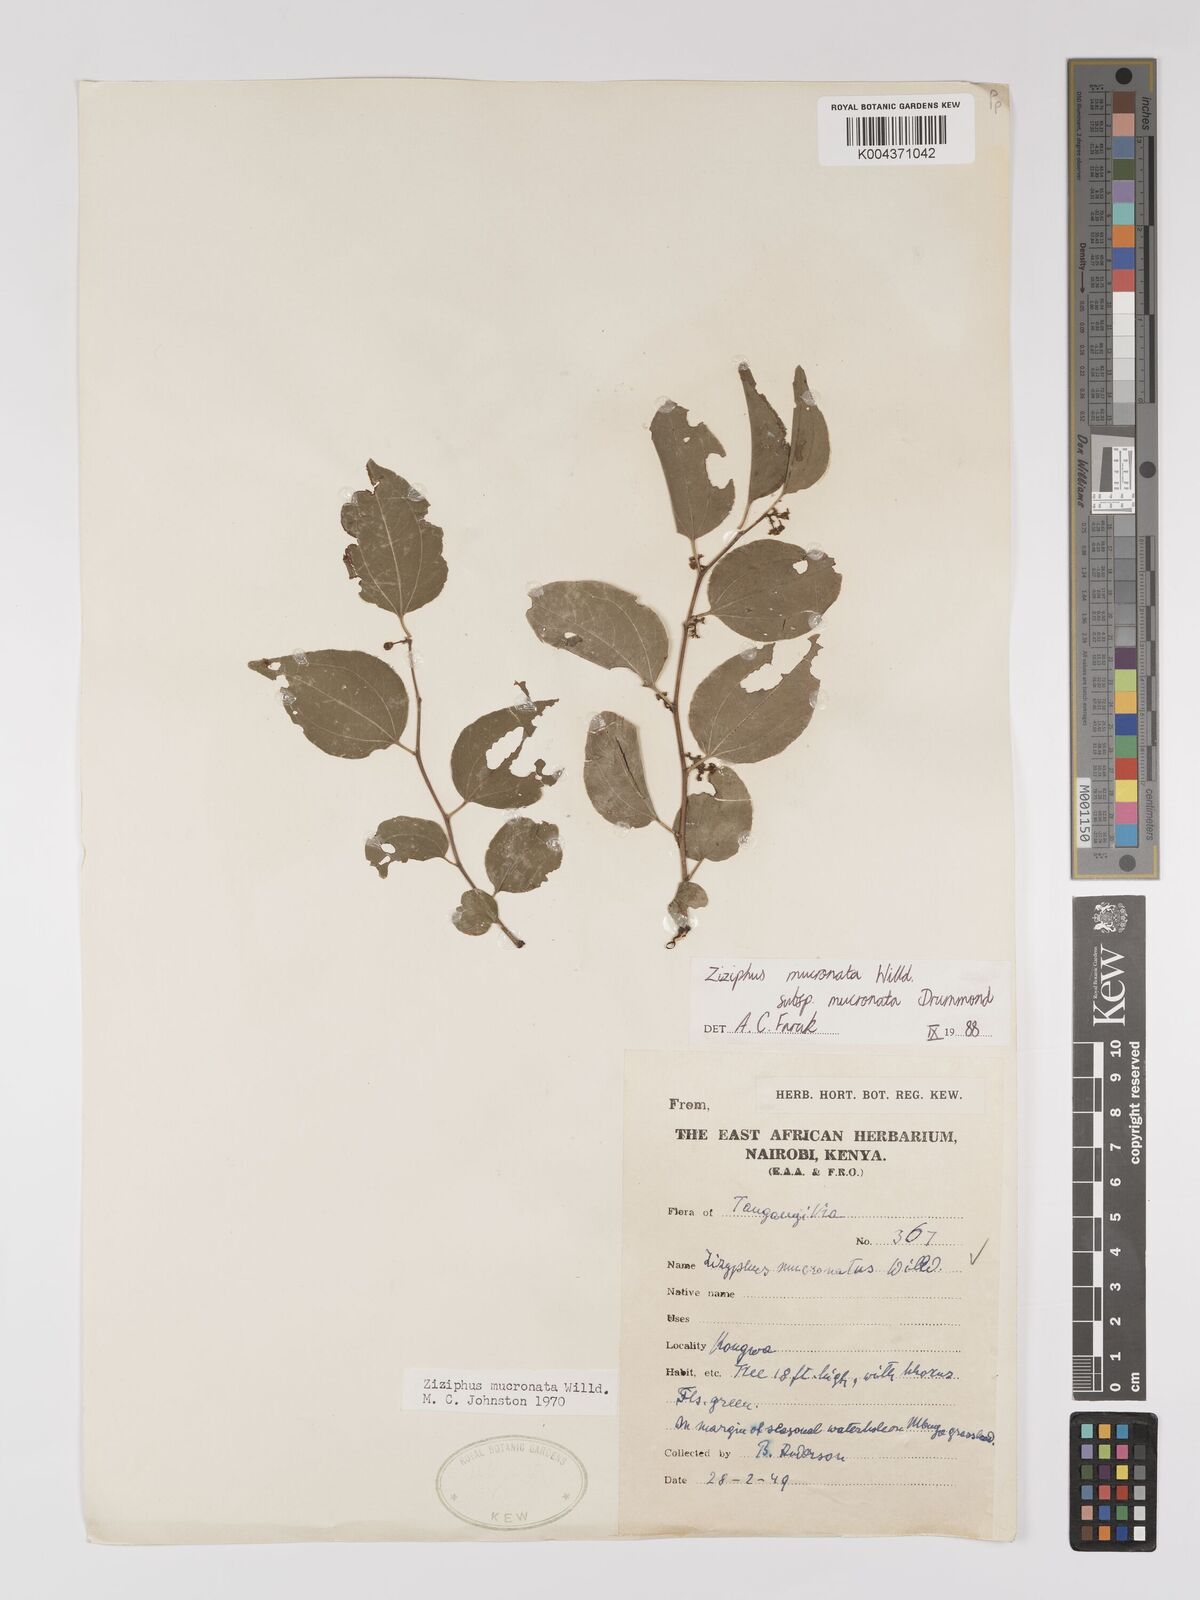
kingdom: Plantae
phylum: Tracheophyta
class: Magnoliopsida
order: Rosales
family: Rhamnaceae
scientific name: Rhamnaceae
